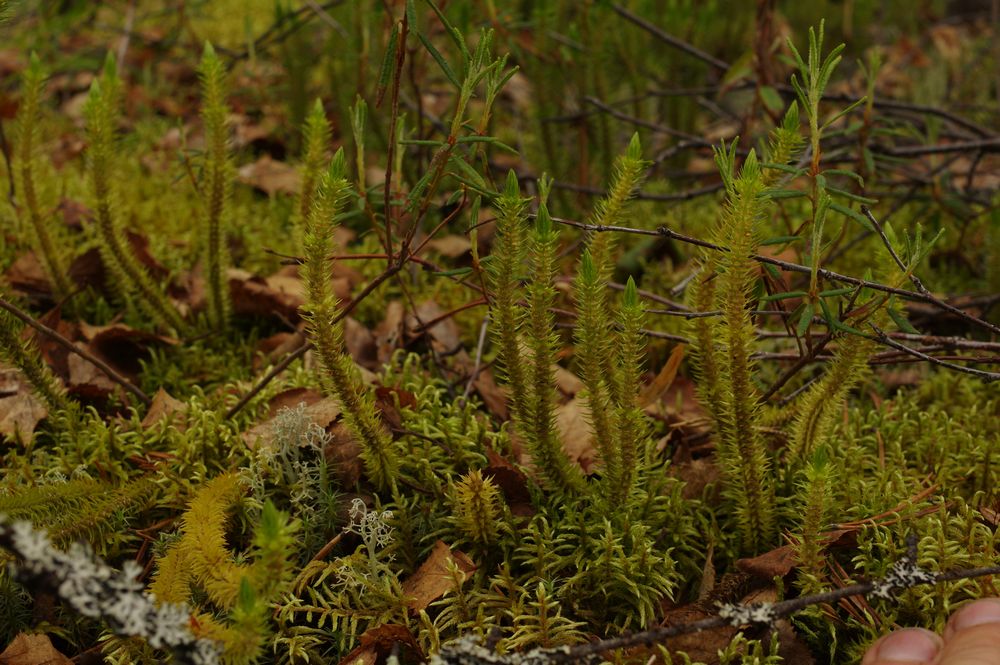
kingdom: Plantae
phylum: Tracheophyta
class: Lycopodiopsida
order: Lycopodiales
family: Lycopodiaceae
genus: Huperzia
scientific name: Huperzia selago
